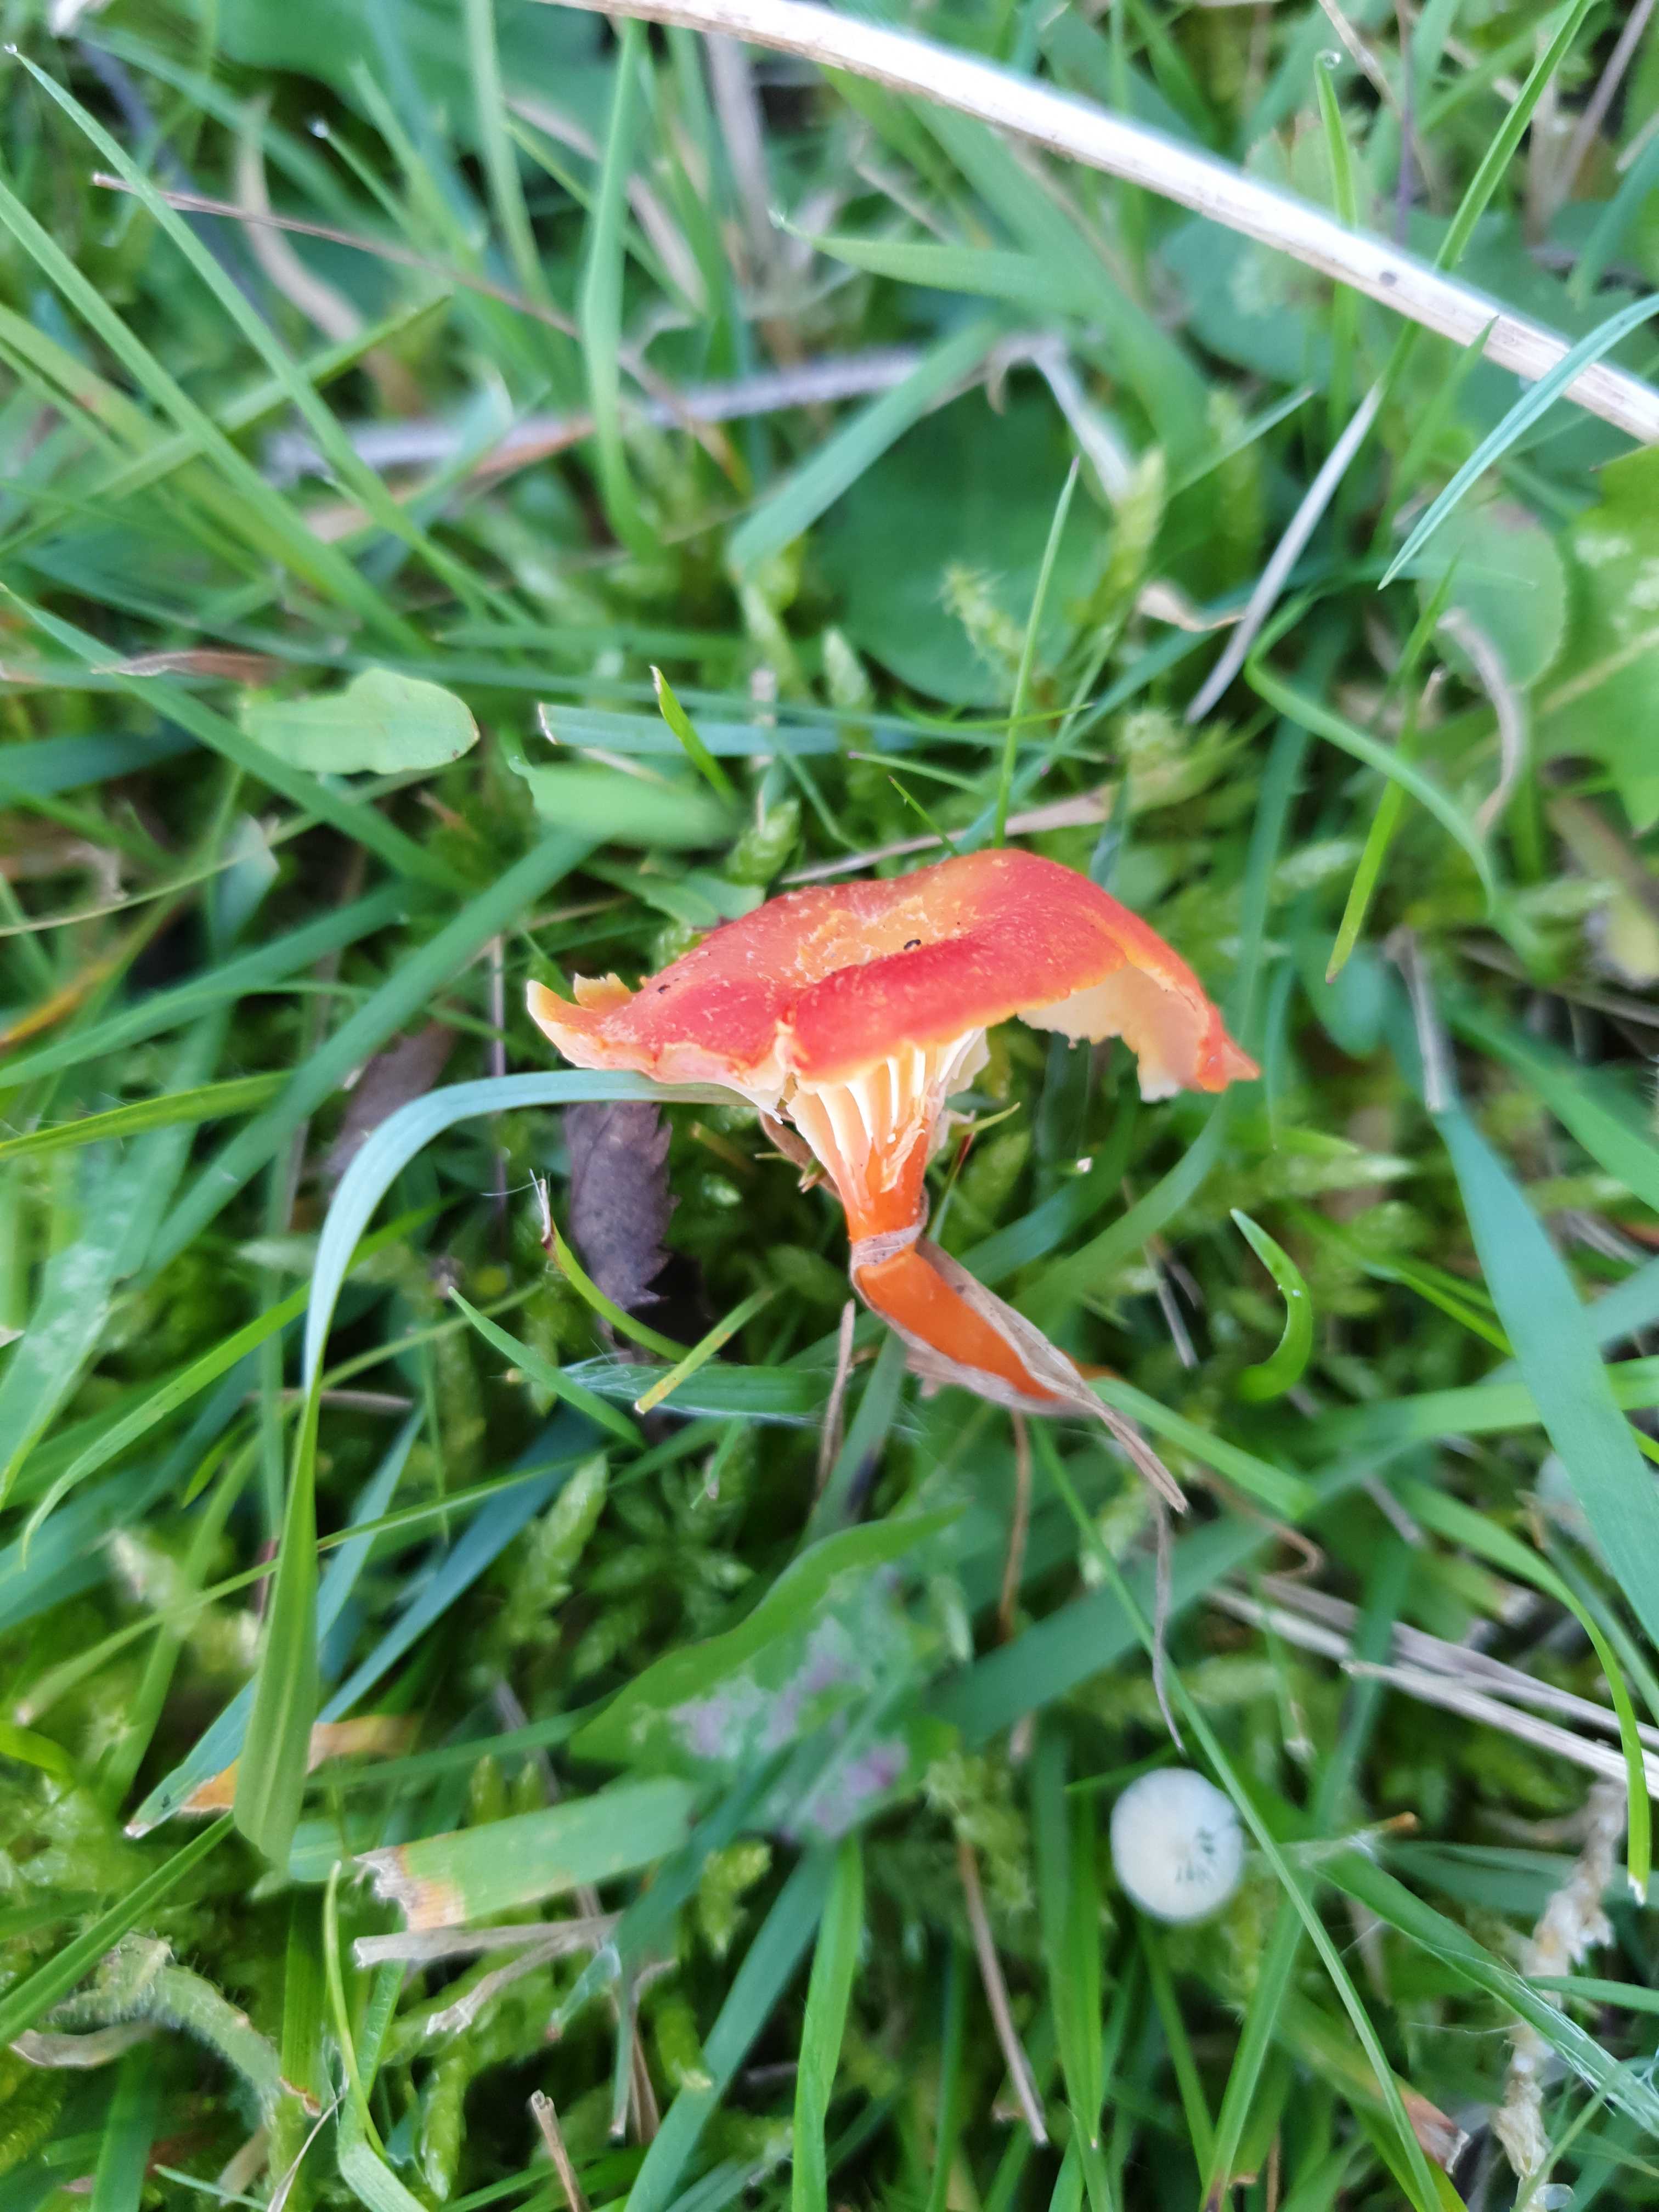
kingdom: Fungi
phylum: Basidiomycota
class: Agaricomycetes
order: Agaricales
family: Hygrophoraceae
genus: Hygrocybe
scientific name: Hygrocybe cantharellus
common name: kantarel-vokshat
